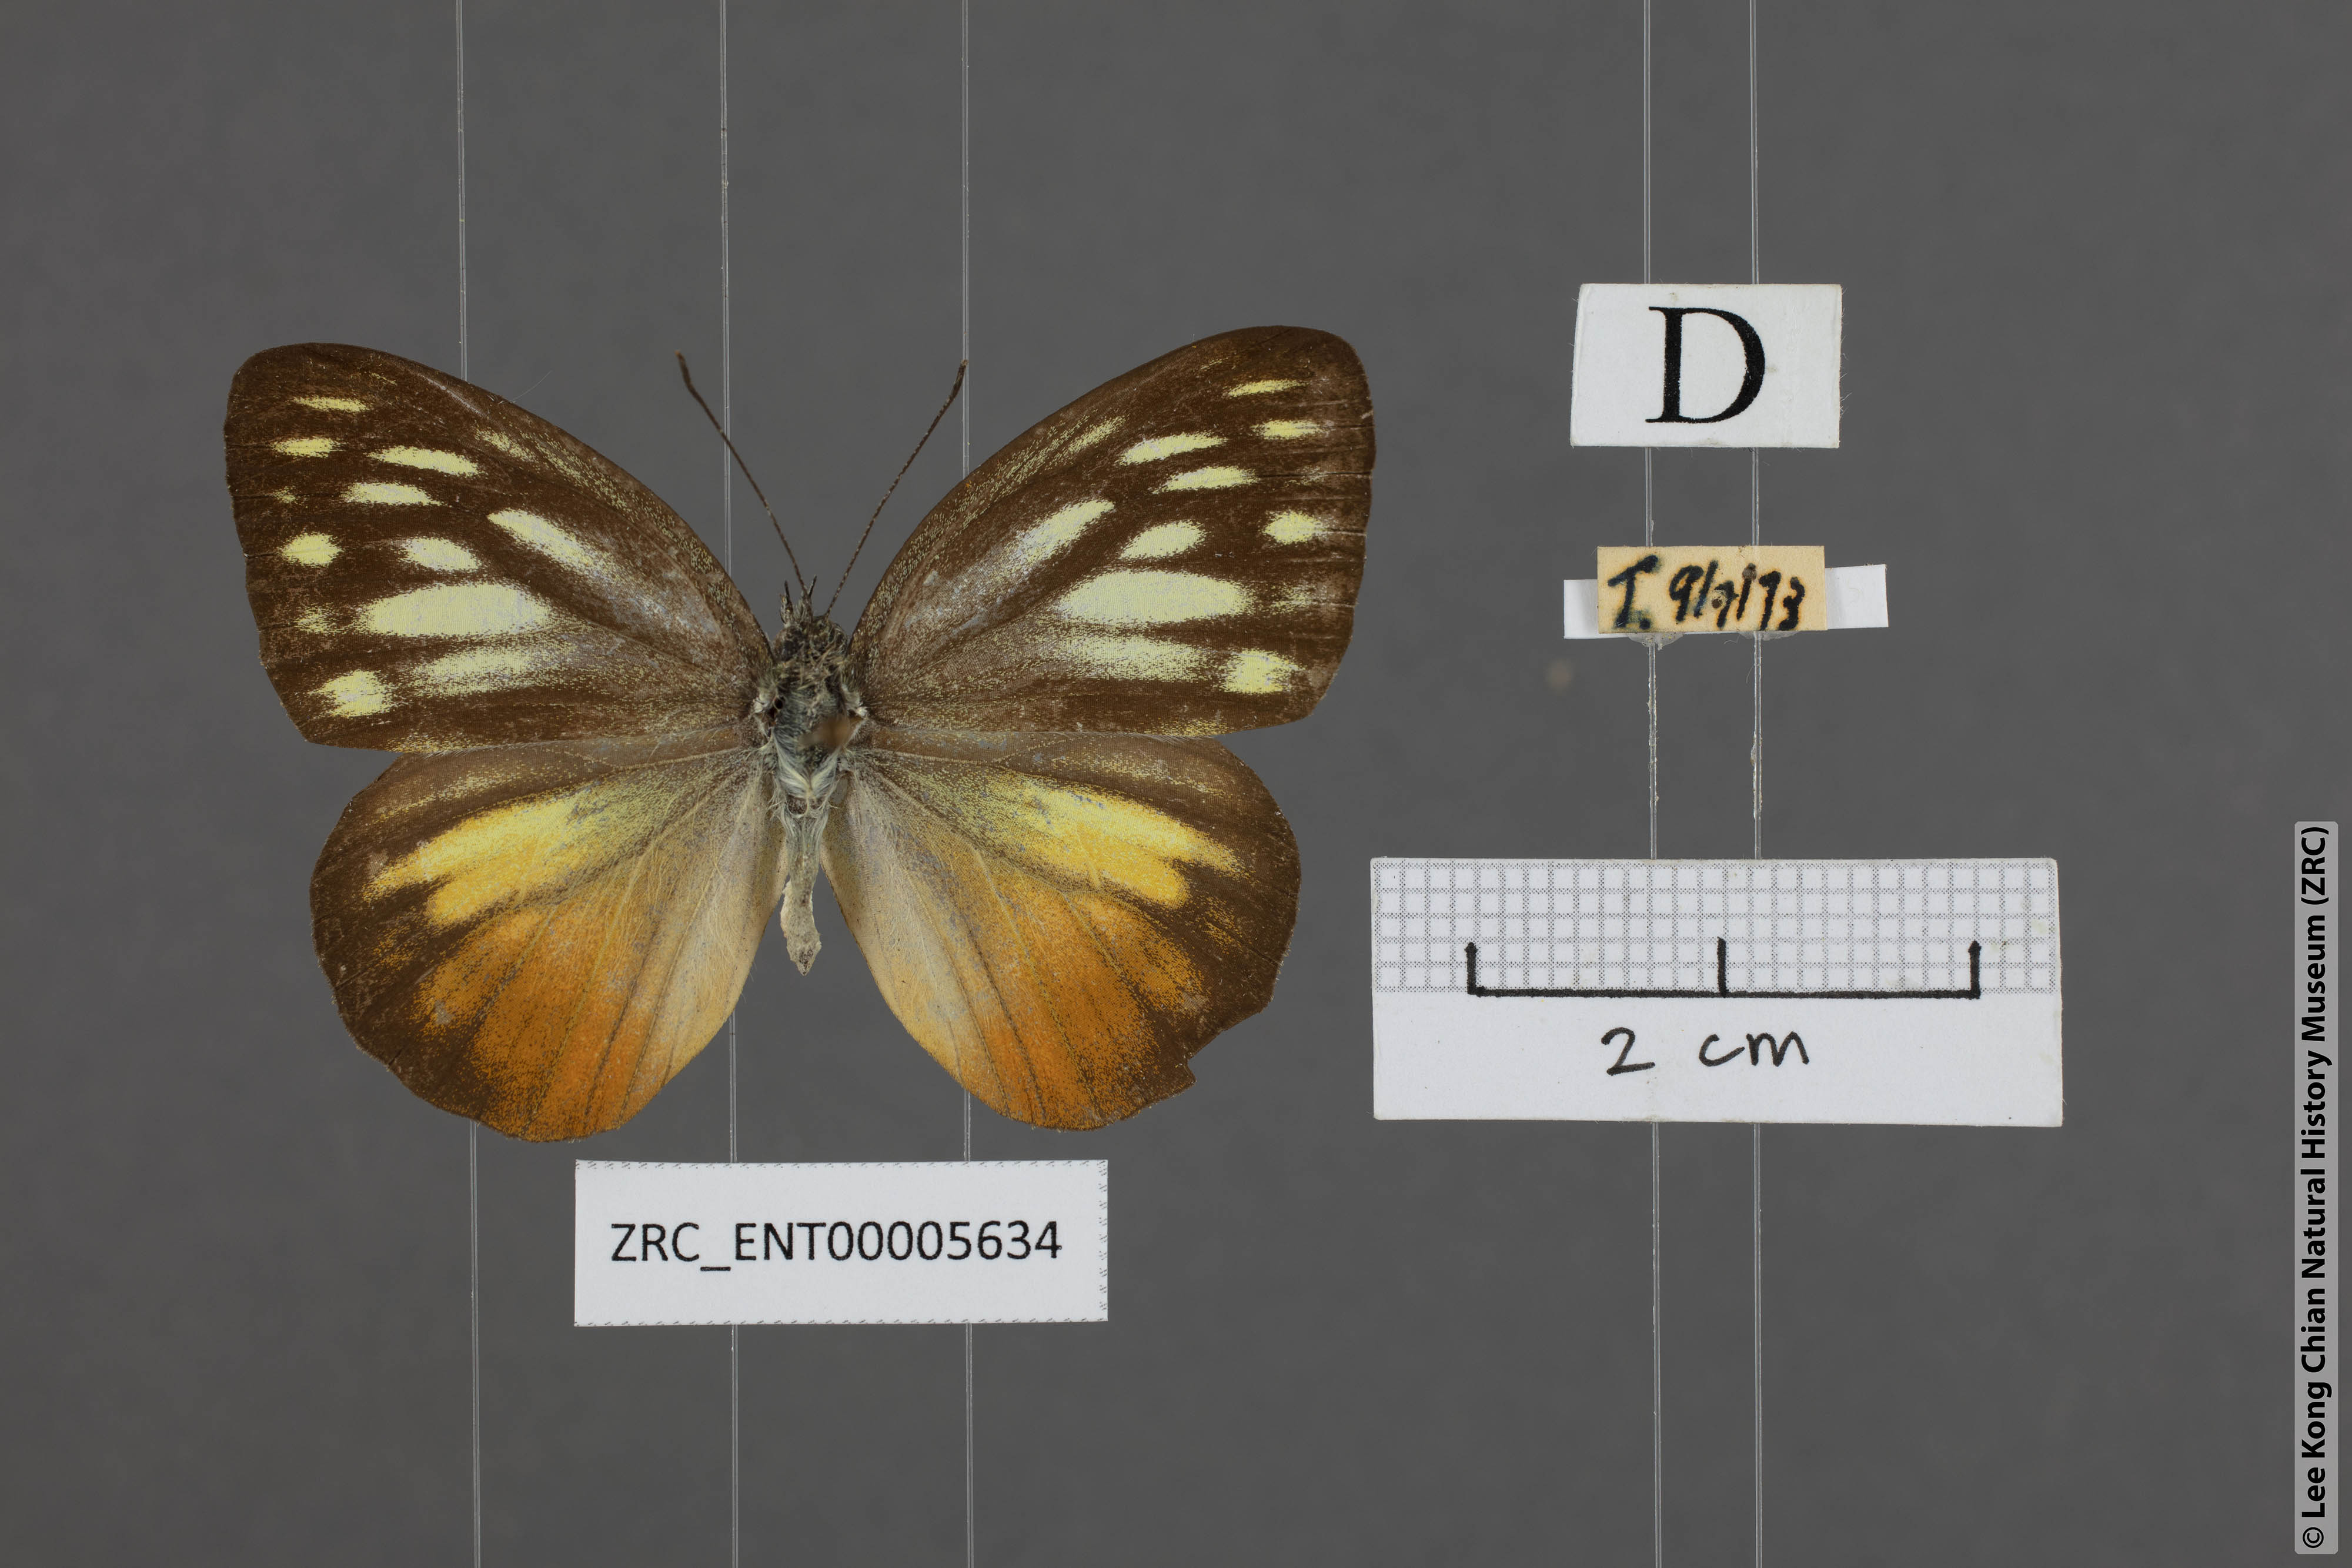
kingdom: Animalia
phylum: Arthropoda
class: Insecta
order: Lepidoptera
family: Pieridae
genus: Cepora
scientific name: Cepora iudith
